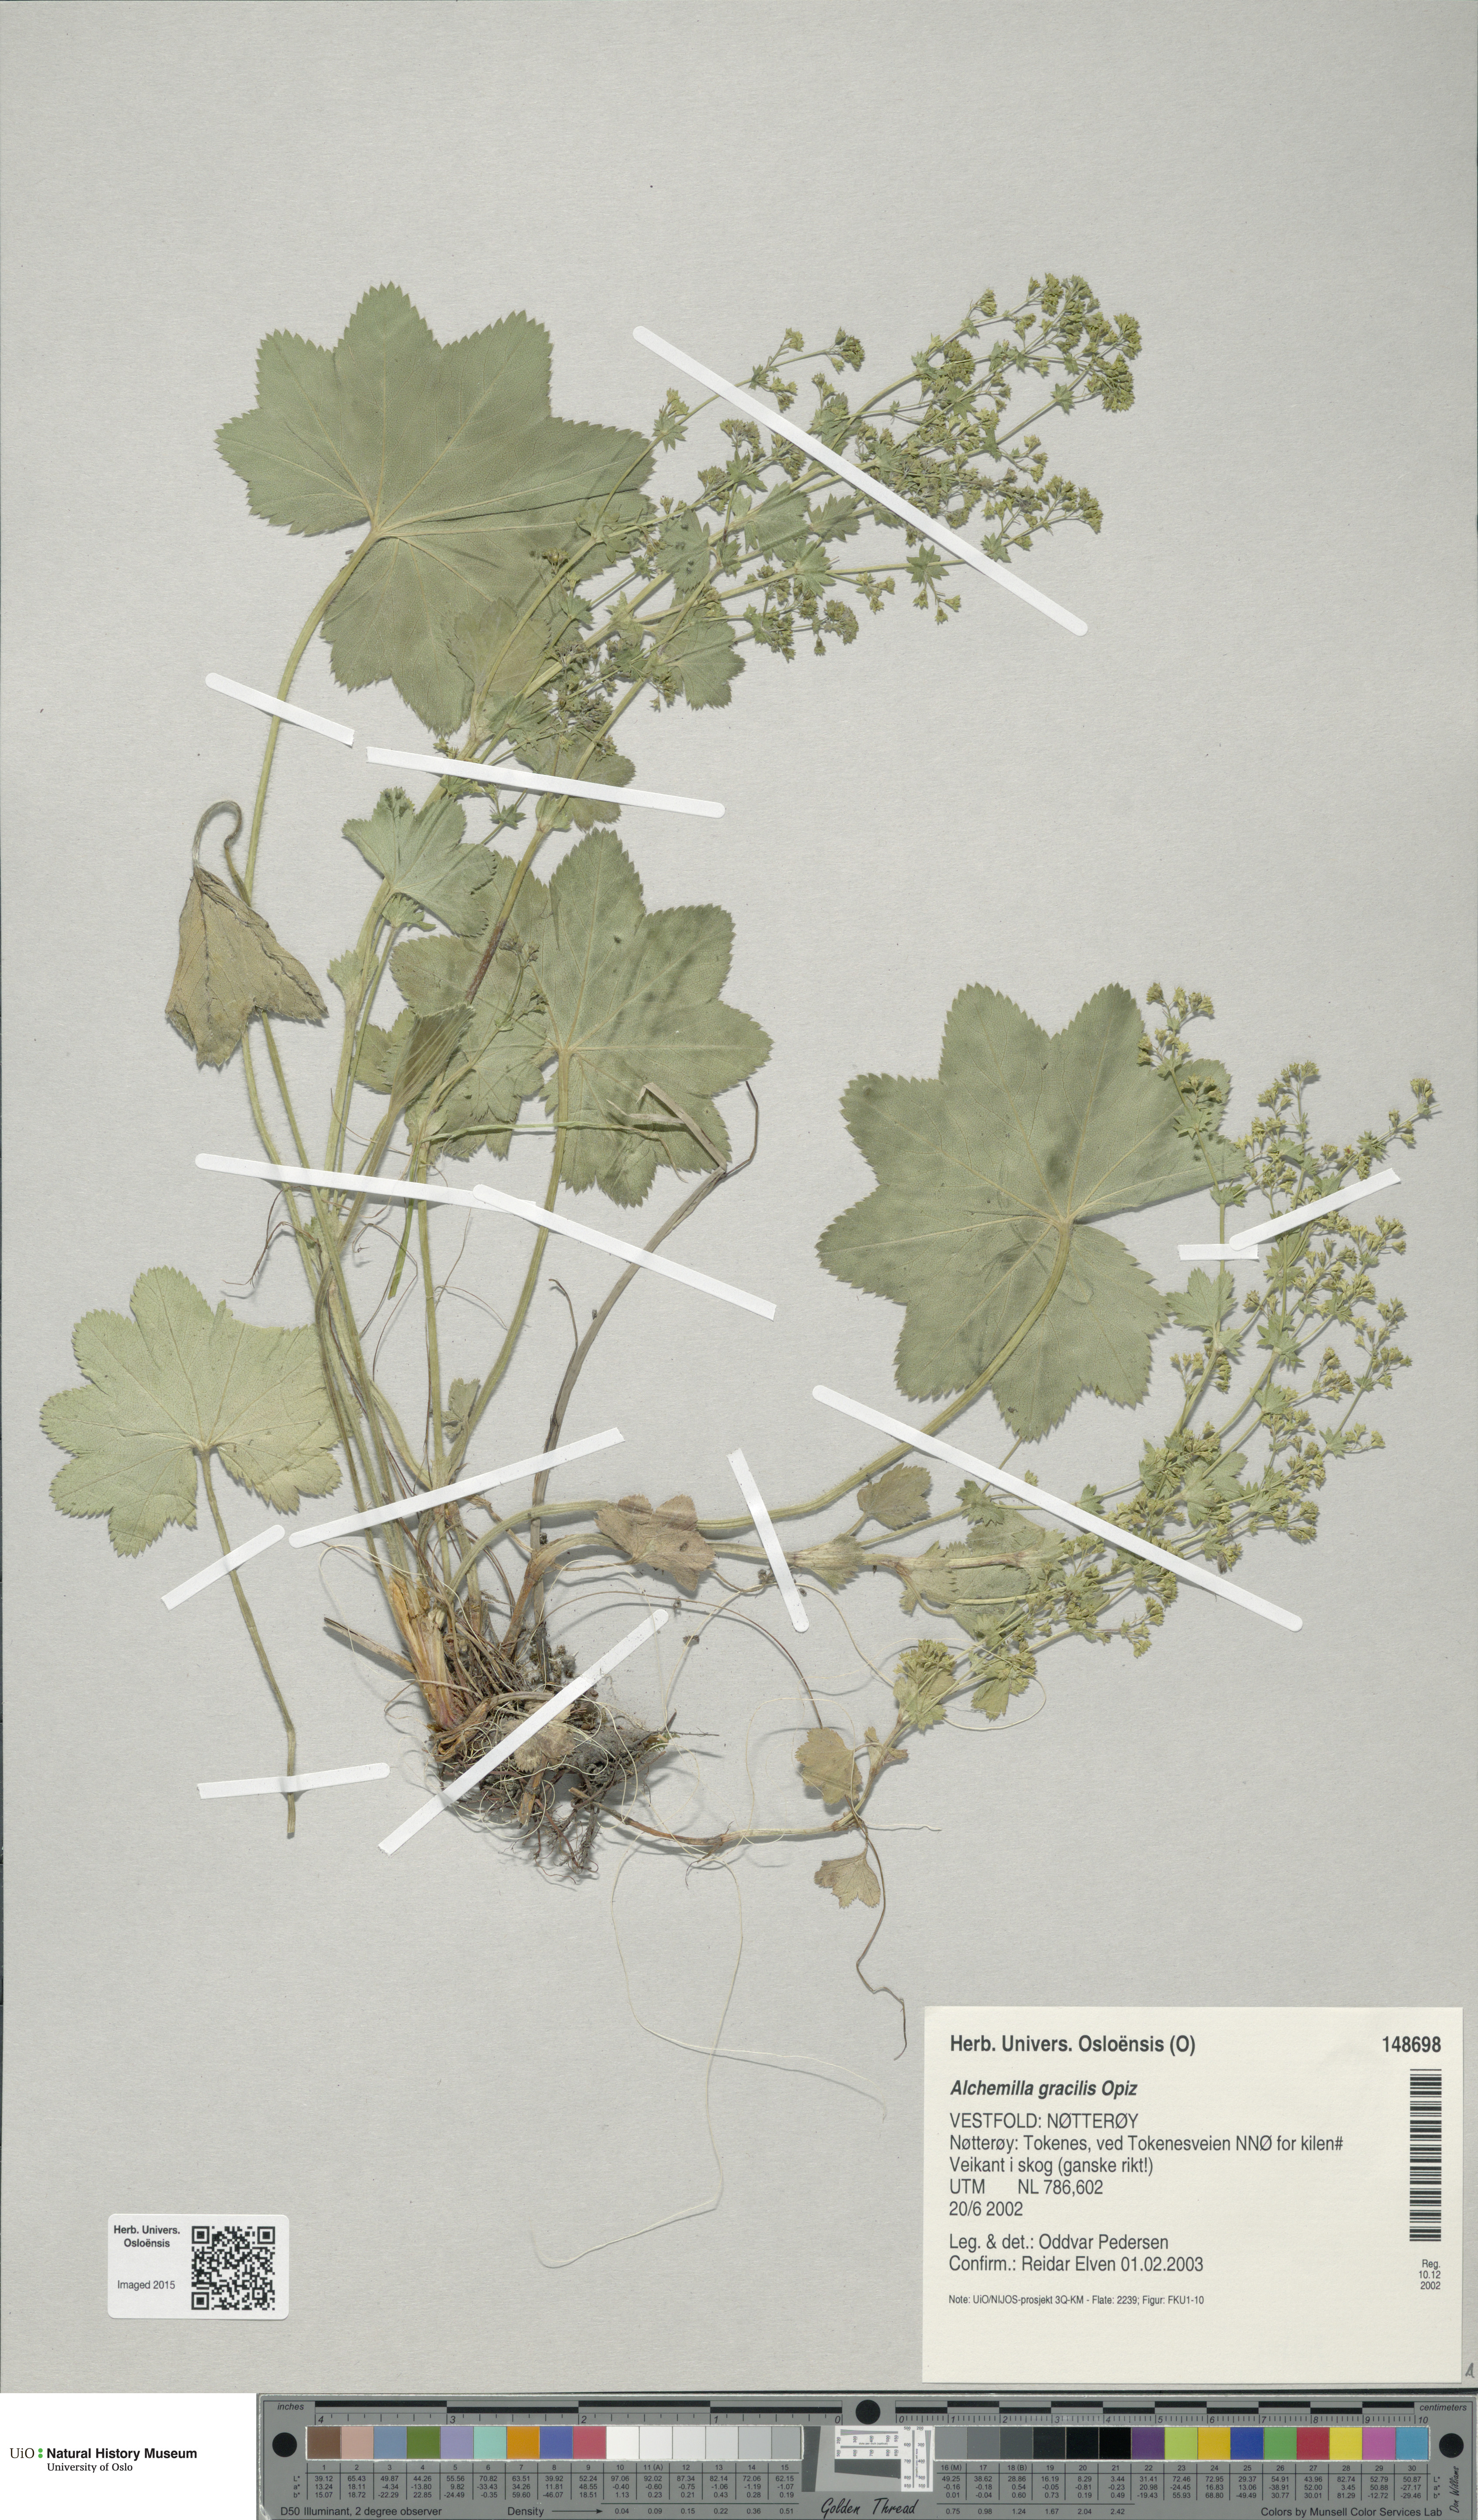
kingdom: Plantae
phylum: Tracheophyta
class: Magnoliopsida
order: Rosales
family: Rosaceae
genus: Alchemilla
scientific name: Alchemilla micans
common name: Gleaming lady's mantle
